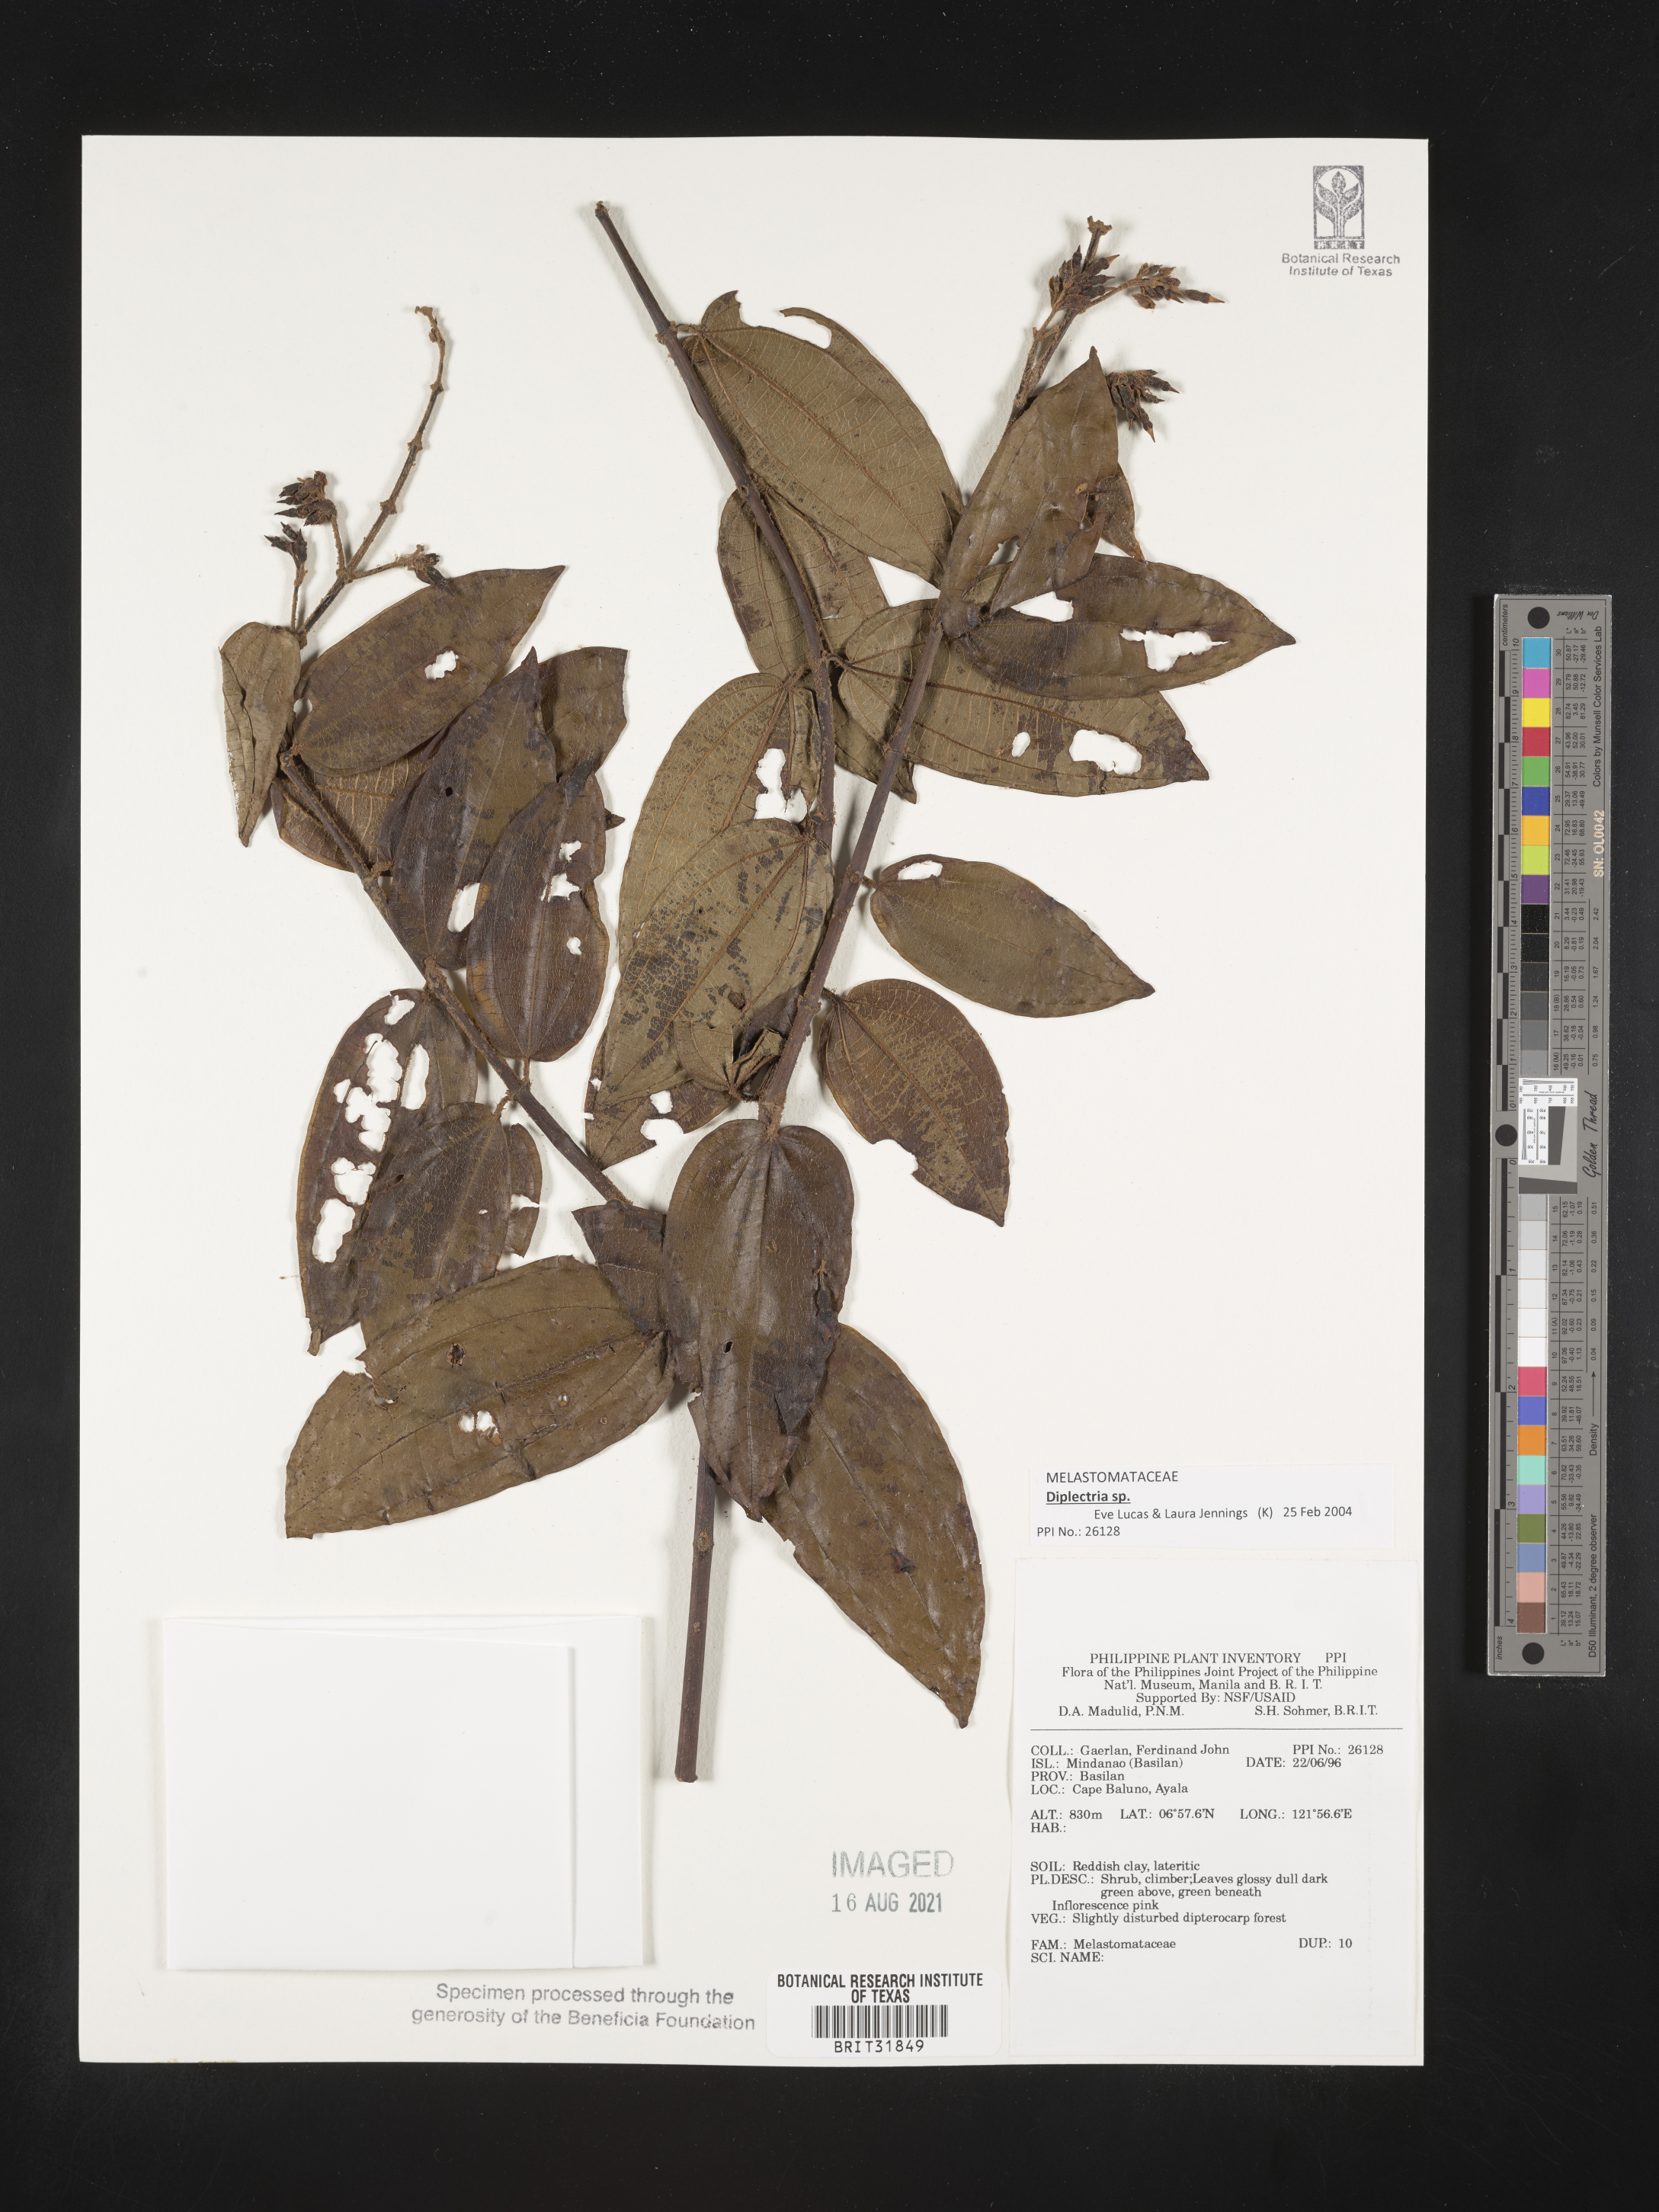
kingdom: Plantae
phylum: Tracheophyta
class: Magnoliopsida
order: Myrtales
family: Melastomataceae
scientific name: Melastomataceae
